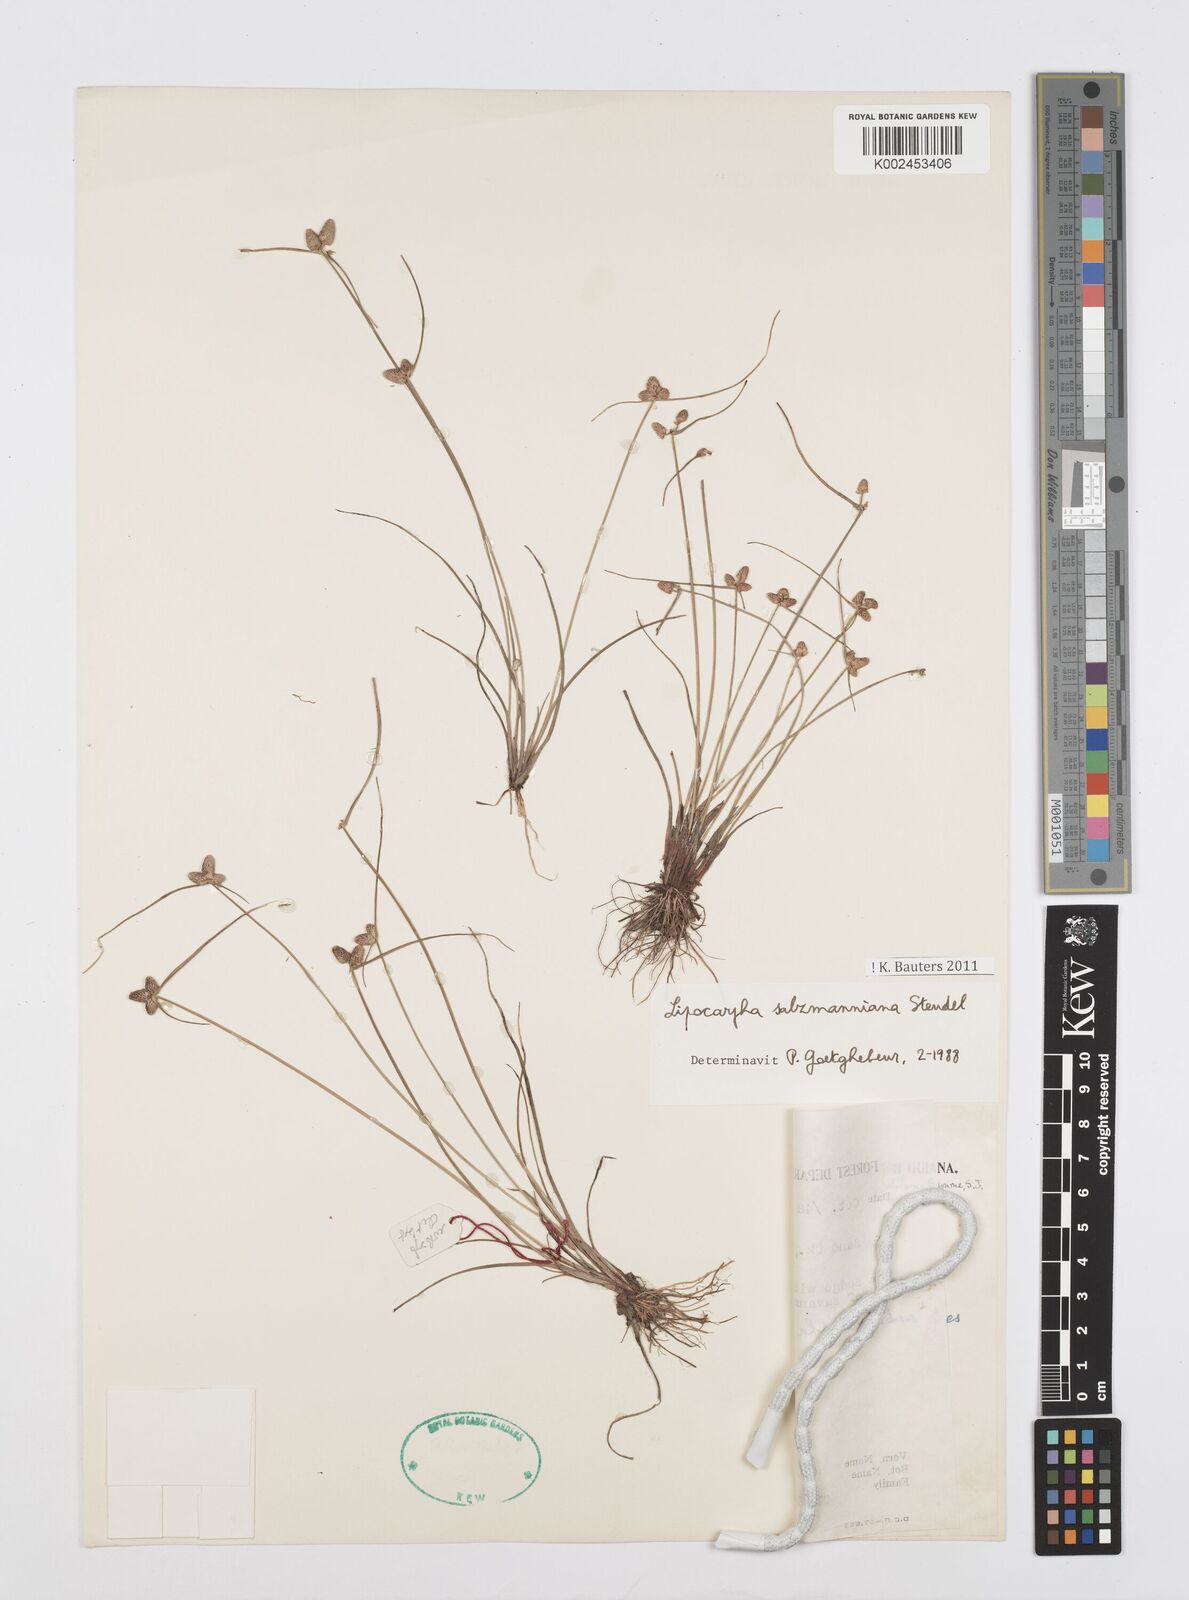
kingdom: Plantae
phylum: Tracheophyta
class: Liliopsida
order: Poales
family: Cyperaceae
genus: Cyperus
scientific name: Cyperus salzmannianus
